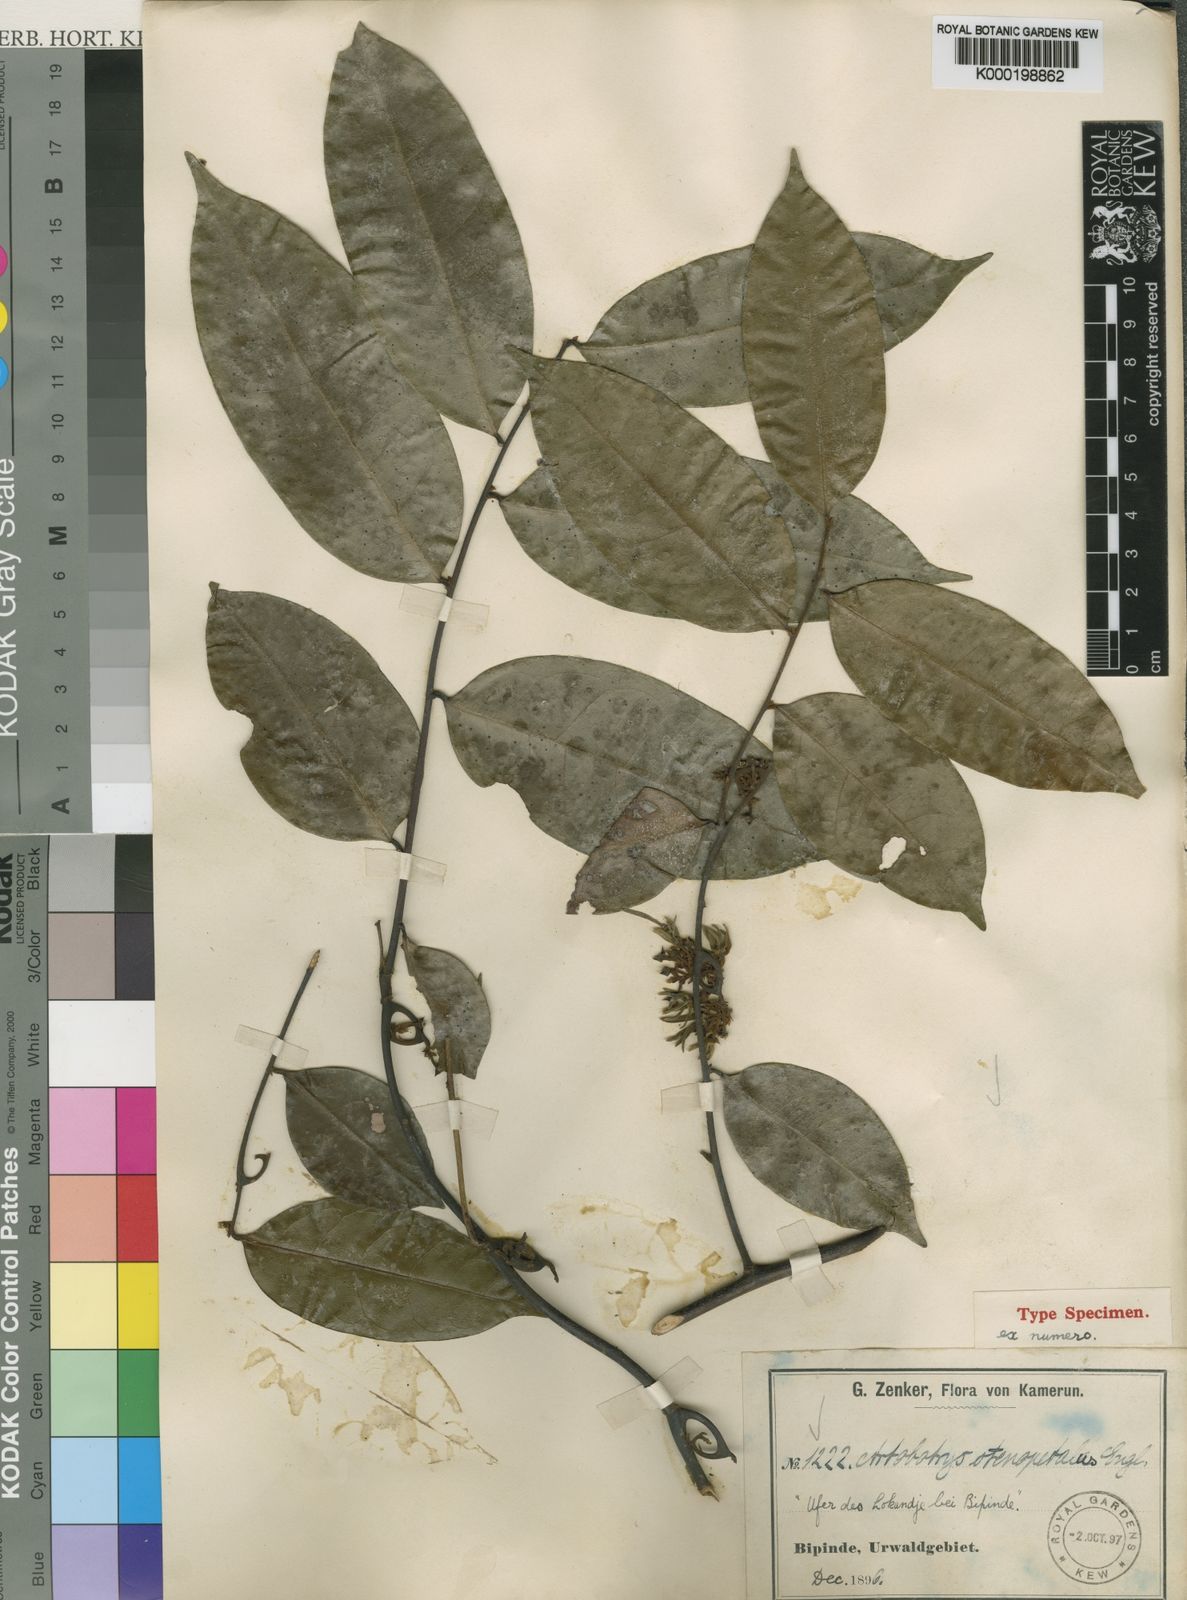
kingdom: Plantae
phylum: Tracheophyta
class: Magnoliopsida
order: Magnoliales
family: Annonaceae
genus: Artabotrys
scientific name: Artabotrys stenopetalus
